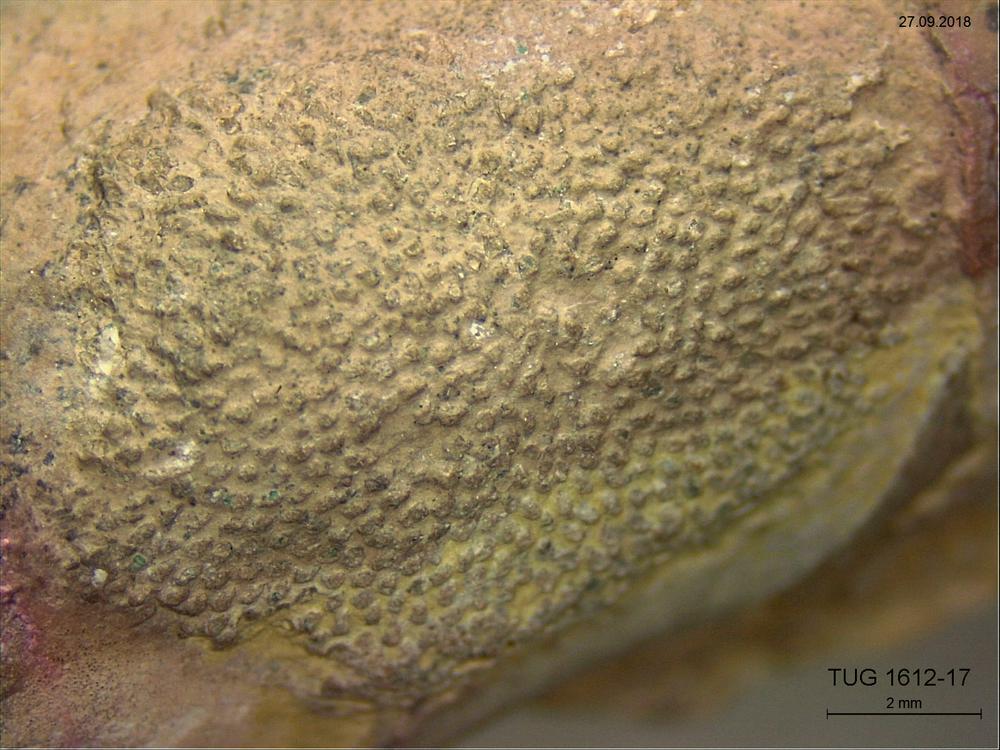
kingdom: Animalia
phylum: Bryozoa
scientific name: Bryozoa
